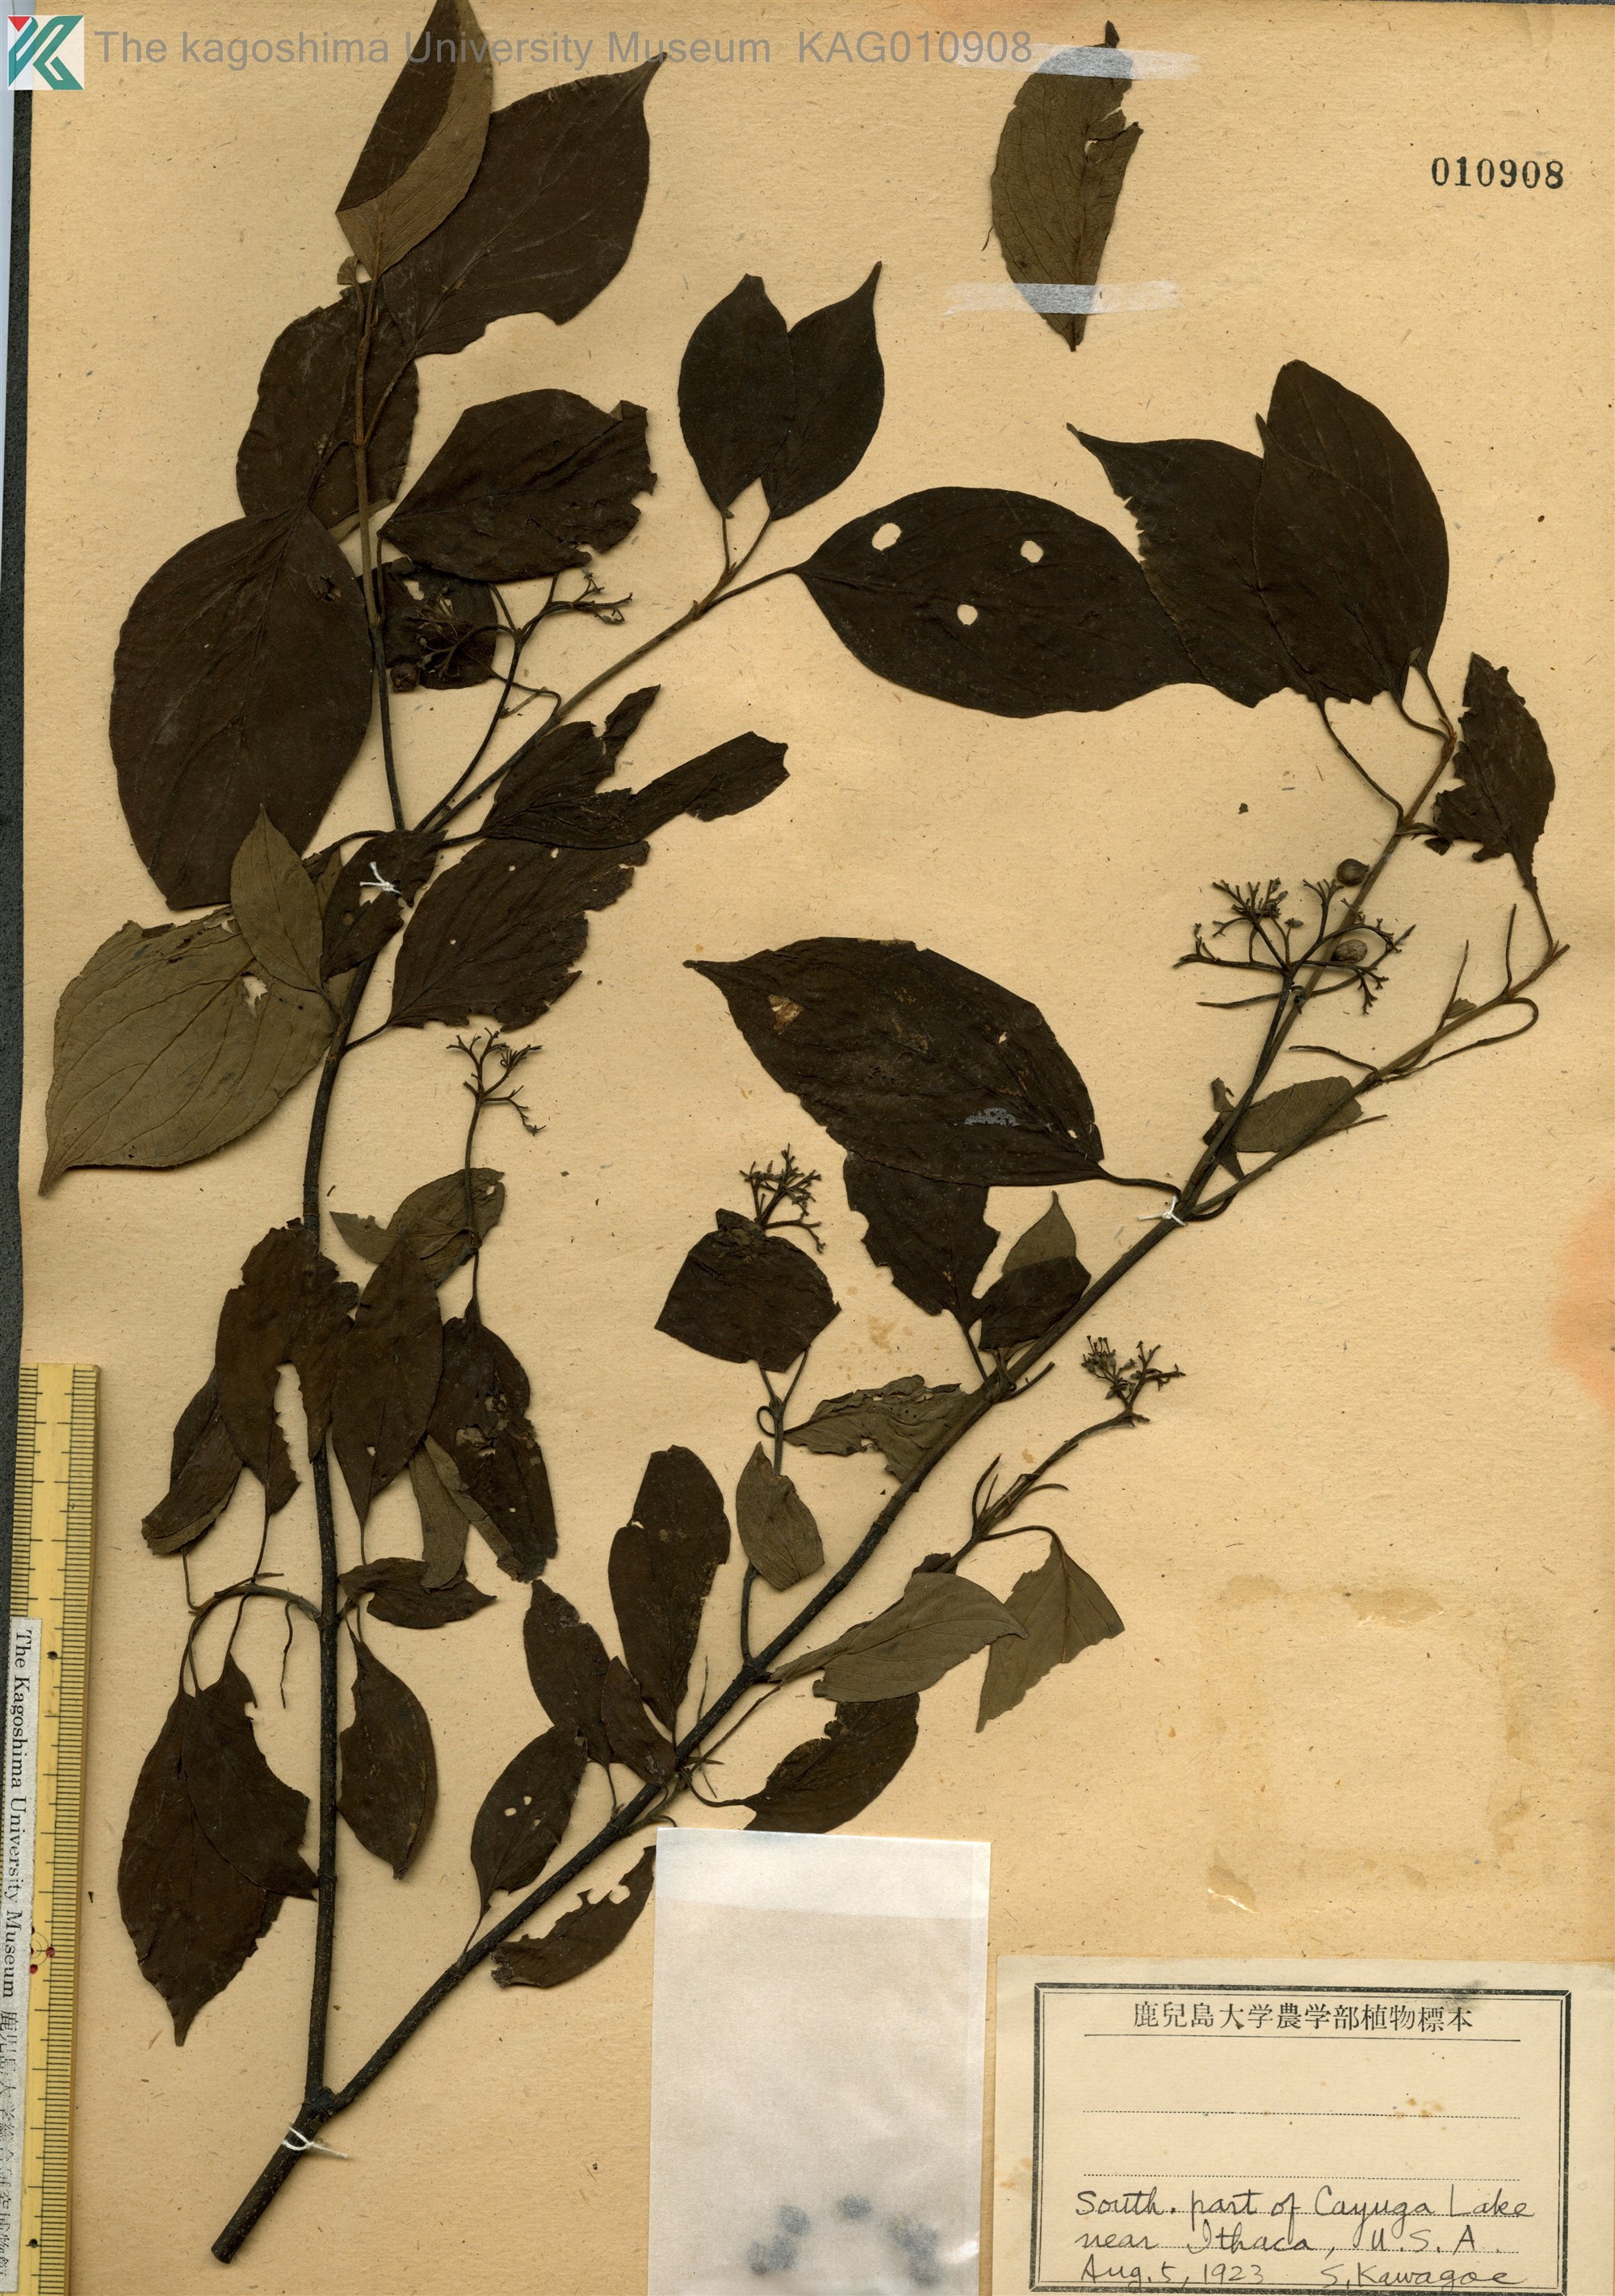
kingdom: Plantae
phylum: Tracheophyta
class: Magnoliopsida
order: Cornales
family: Cornaceae
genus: Cornus
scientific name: Cornus
